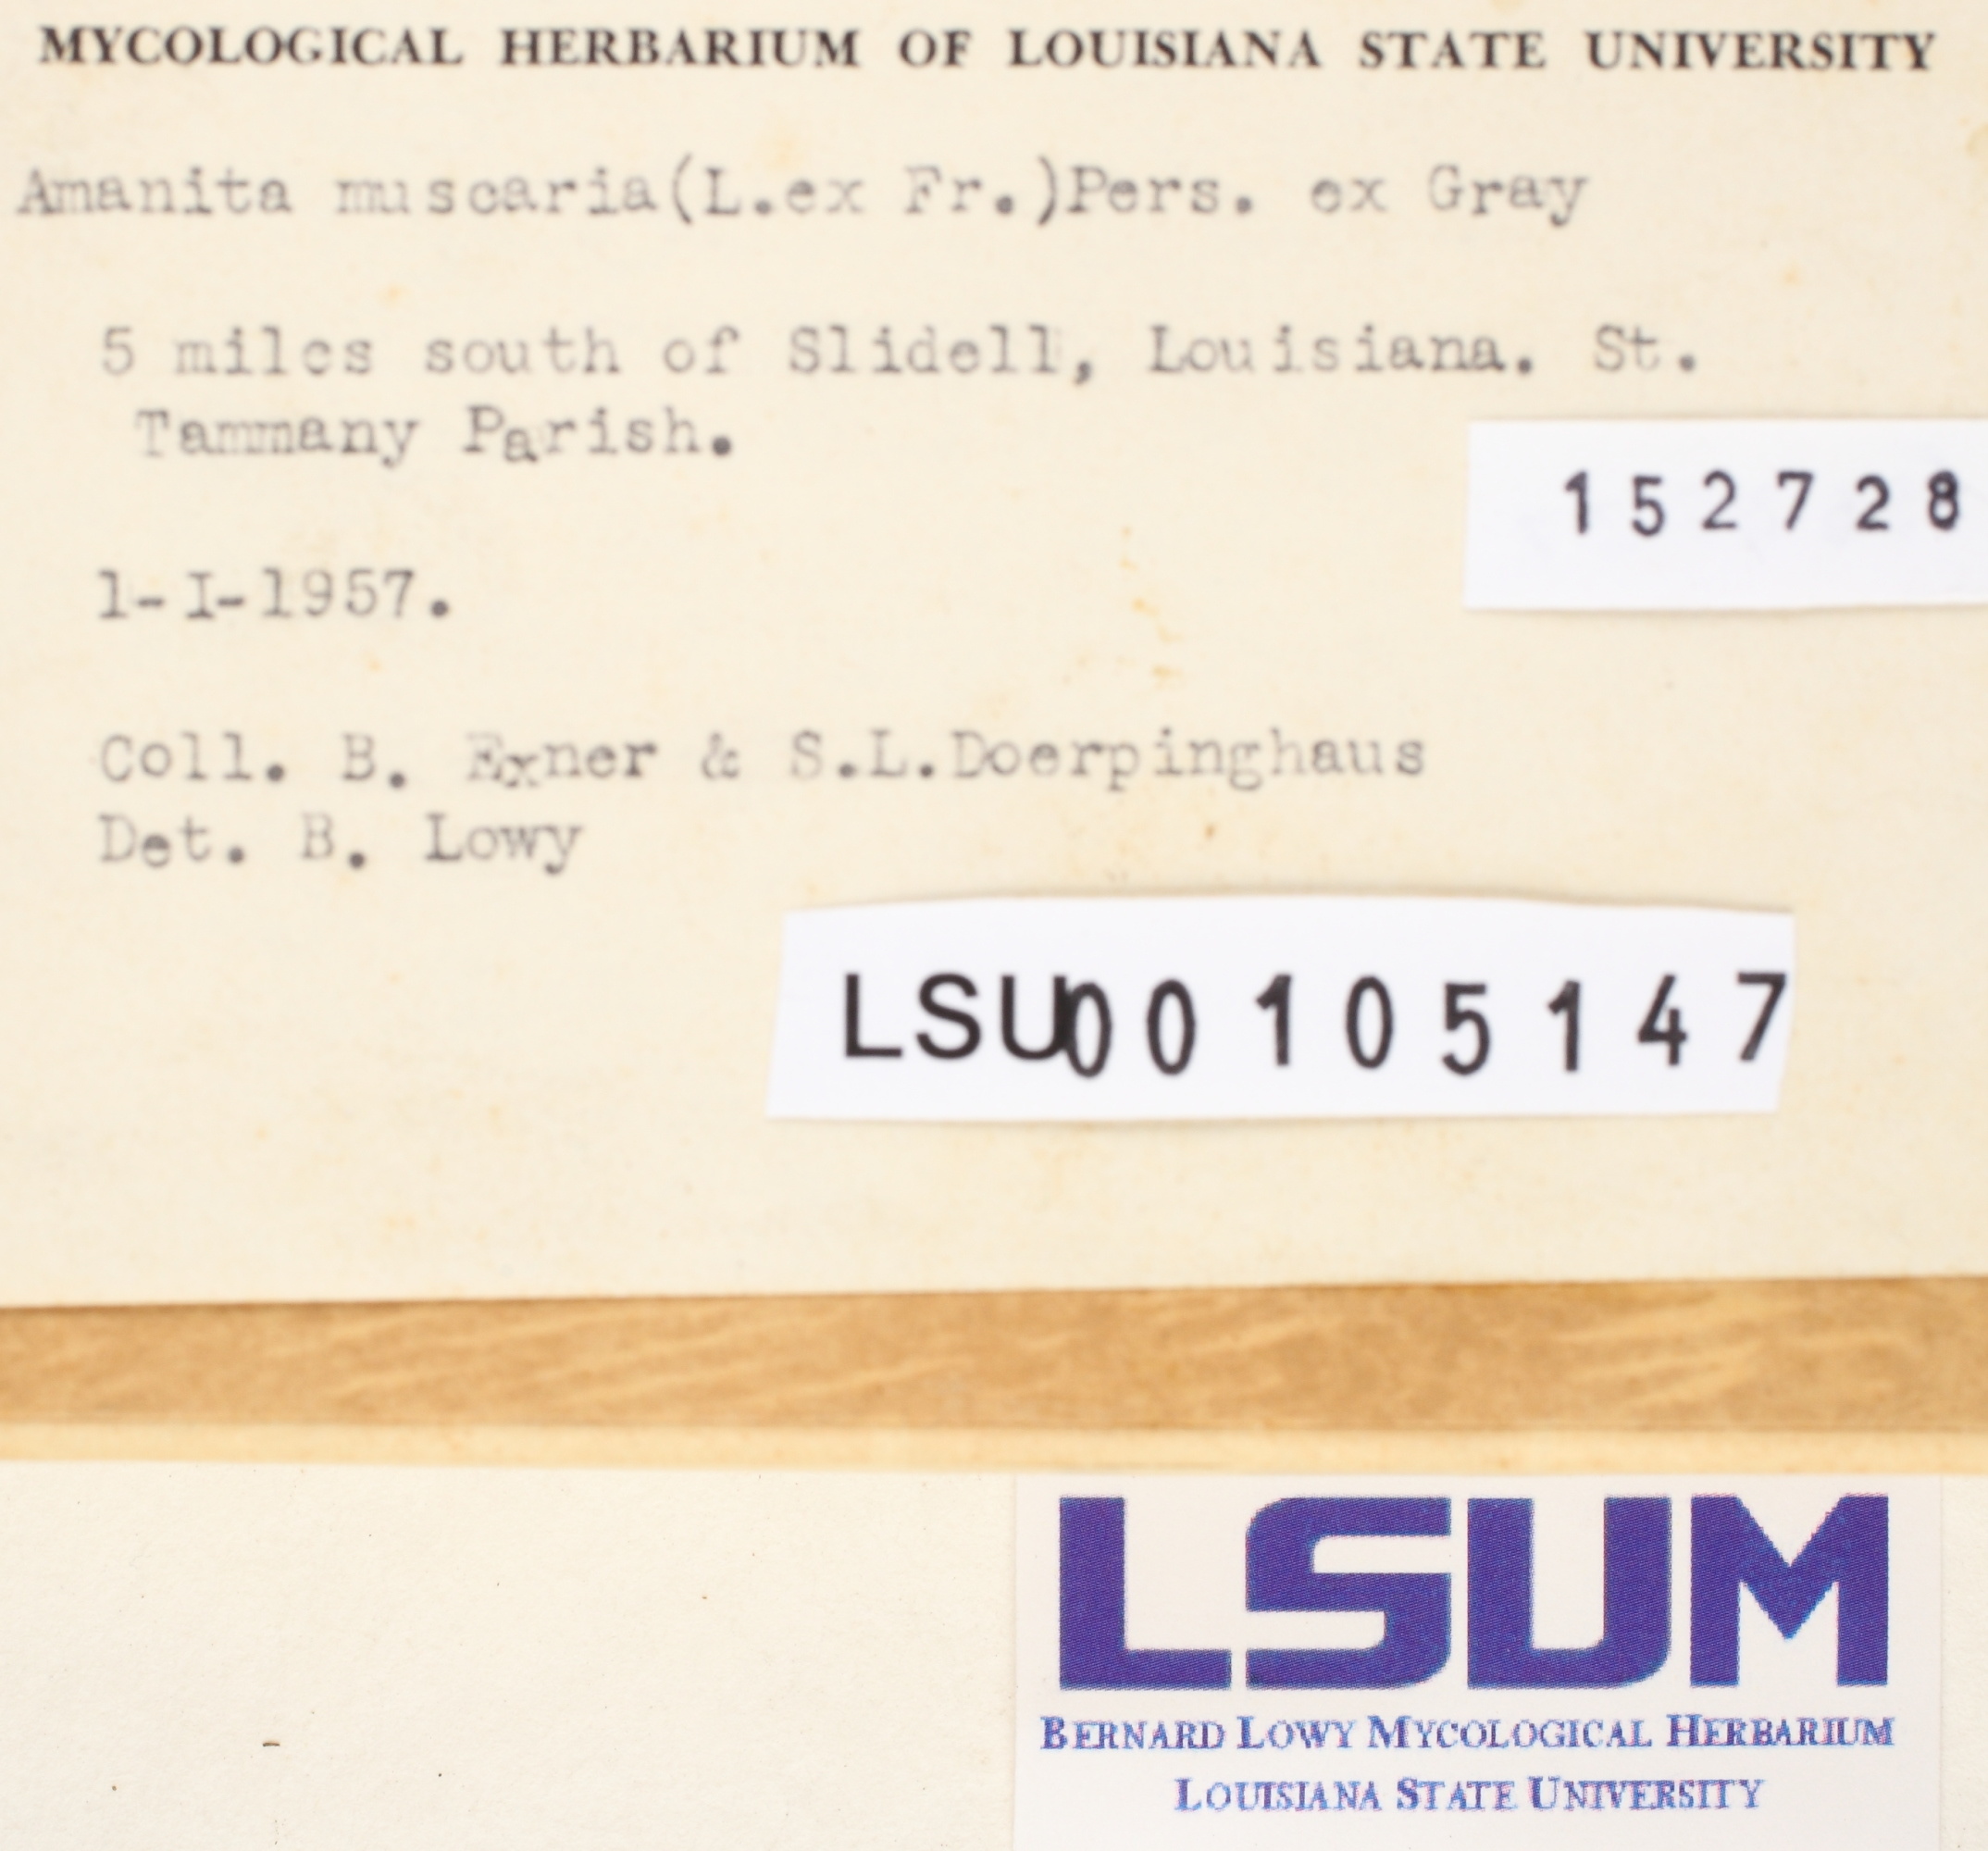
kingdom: Fungi
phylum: Basidiomycota
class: Agaricomycetes
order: Agaricales
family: Amanitaceae
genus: Amanita
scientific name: Amanita muscaria
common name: Fly agaric
